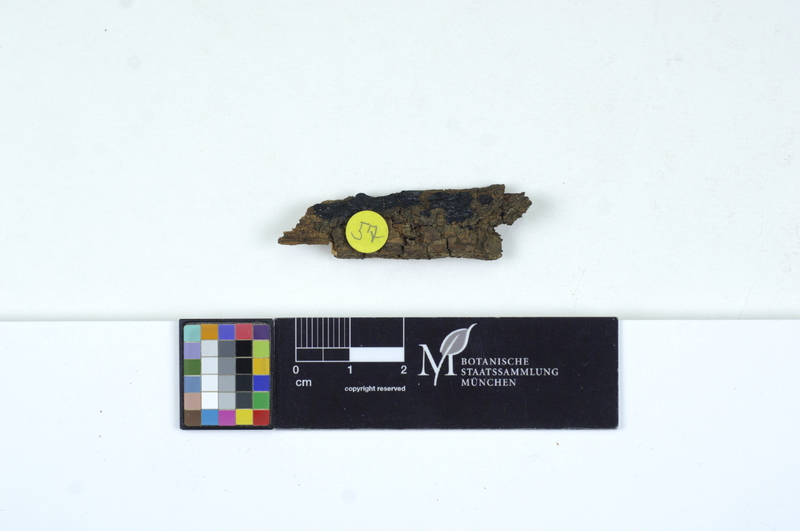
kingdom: Fungi
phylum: Basidiomycota
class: Agaricomycetes
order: Auriculariales
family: Auriculariaceae
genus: Exidia
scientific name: Exidia glandulosa
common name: Witches' butter
